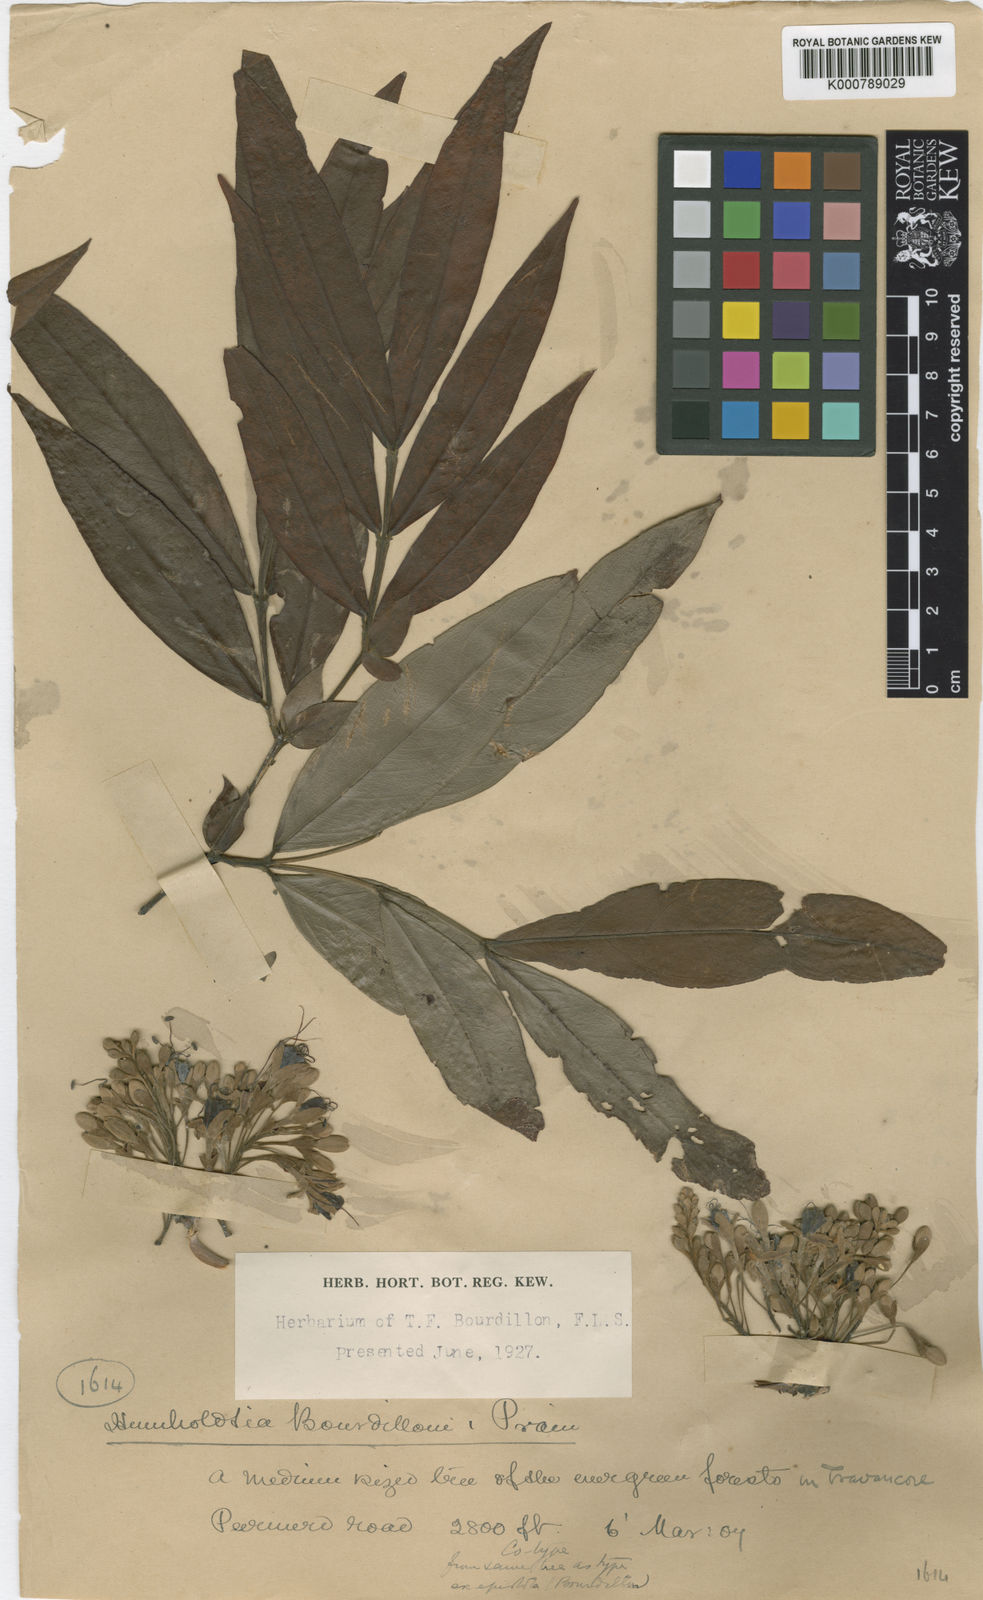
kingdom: Plantae
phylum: Tracheophyta
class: Magnoliopsida
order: Fabales
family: Fabaceae
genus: Humboldtia
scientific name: Humboldtia bourdillonii
